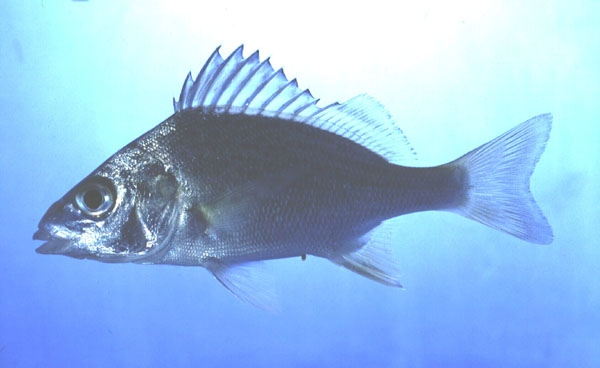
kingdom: Animalia
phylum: Chordata
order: Perciformes
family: Haemulidae
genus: Pomadasys
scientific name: Pomadasys commersonnii
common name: Smallspotted grunter
